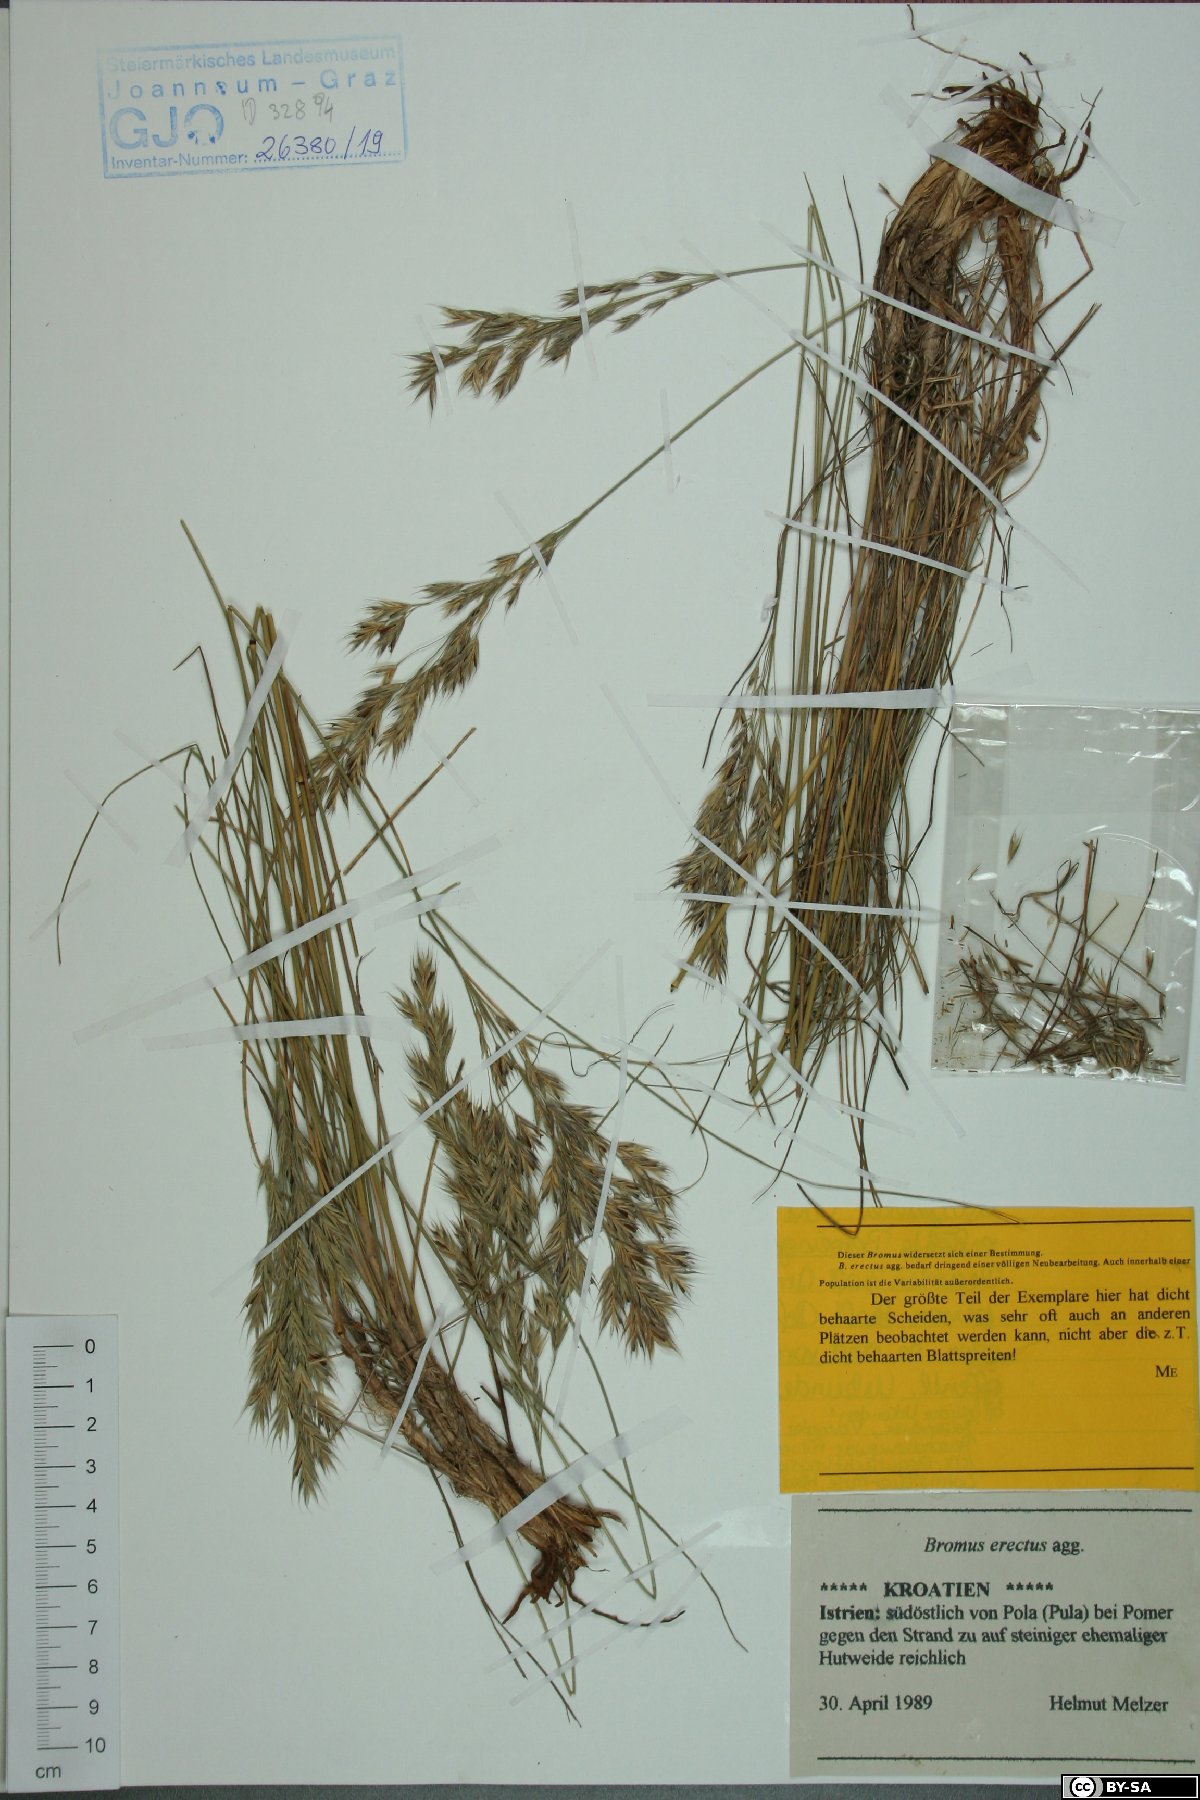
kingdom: Plantae
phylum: Tracheophyta
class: Liliopsida
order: Poales
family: Poaceae
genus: Bromus
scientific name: Bromus erectus
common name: Erect brome
